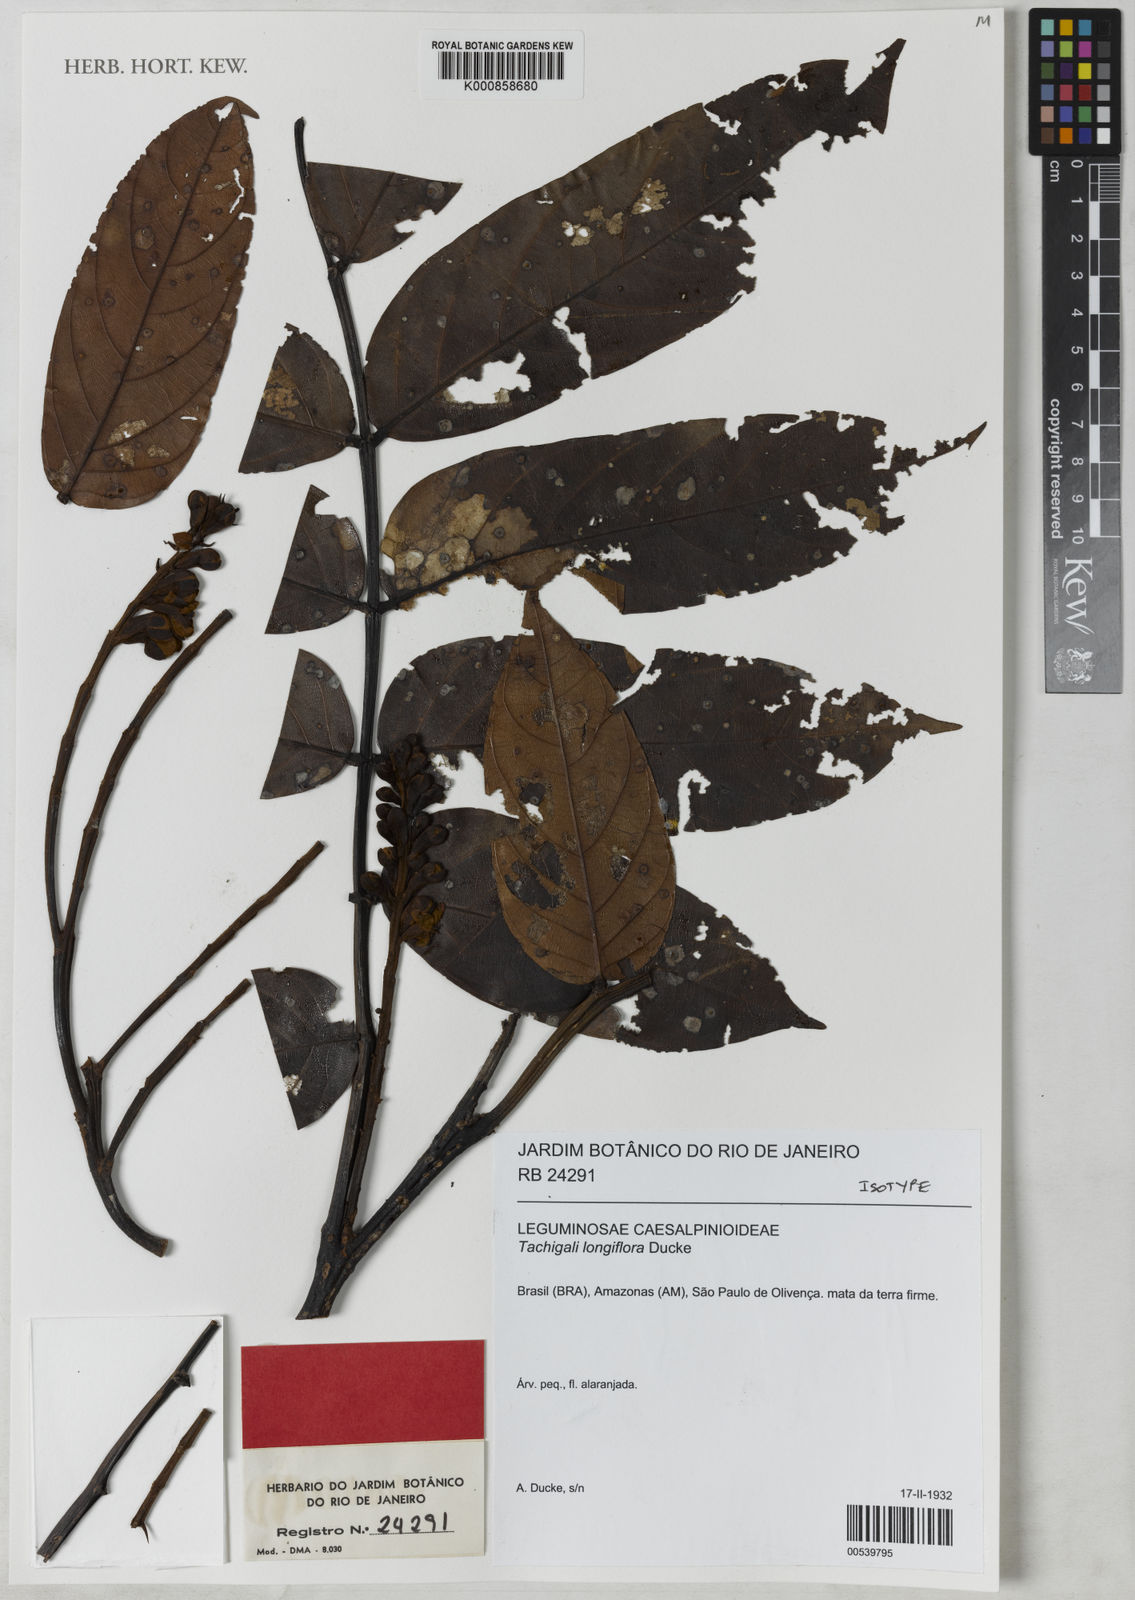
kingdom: Plantae
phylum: Tracheophyta
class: Magnoliopsida
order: Fabales
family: Fabaceae
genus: Tachigali
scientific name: Tachigali longiflora
